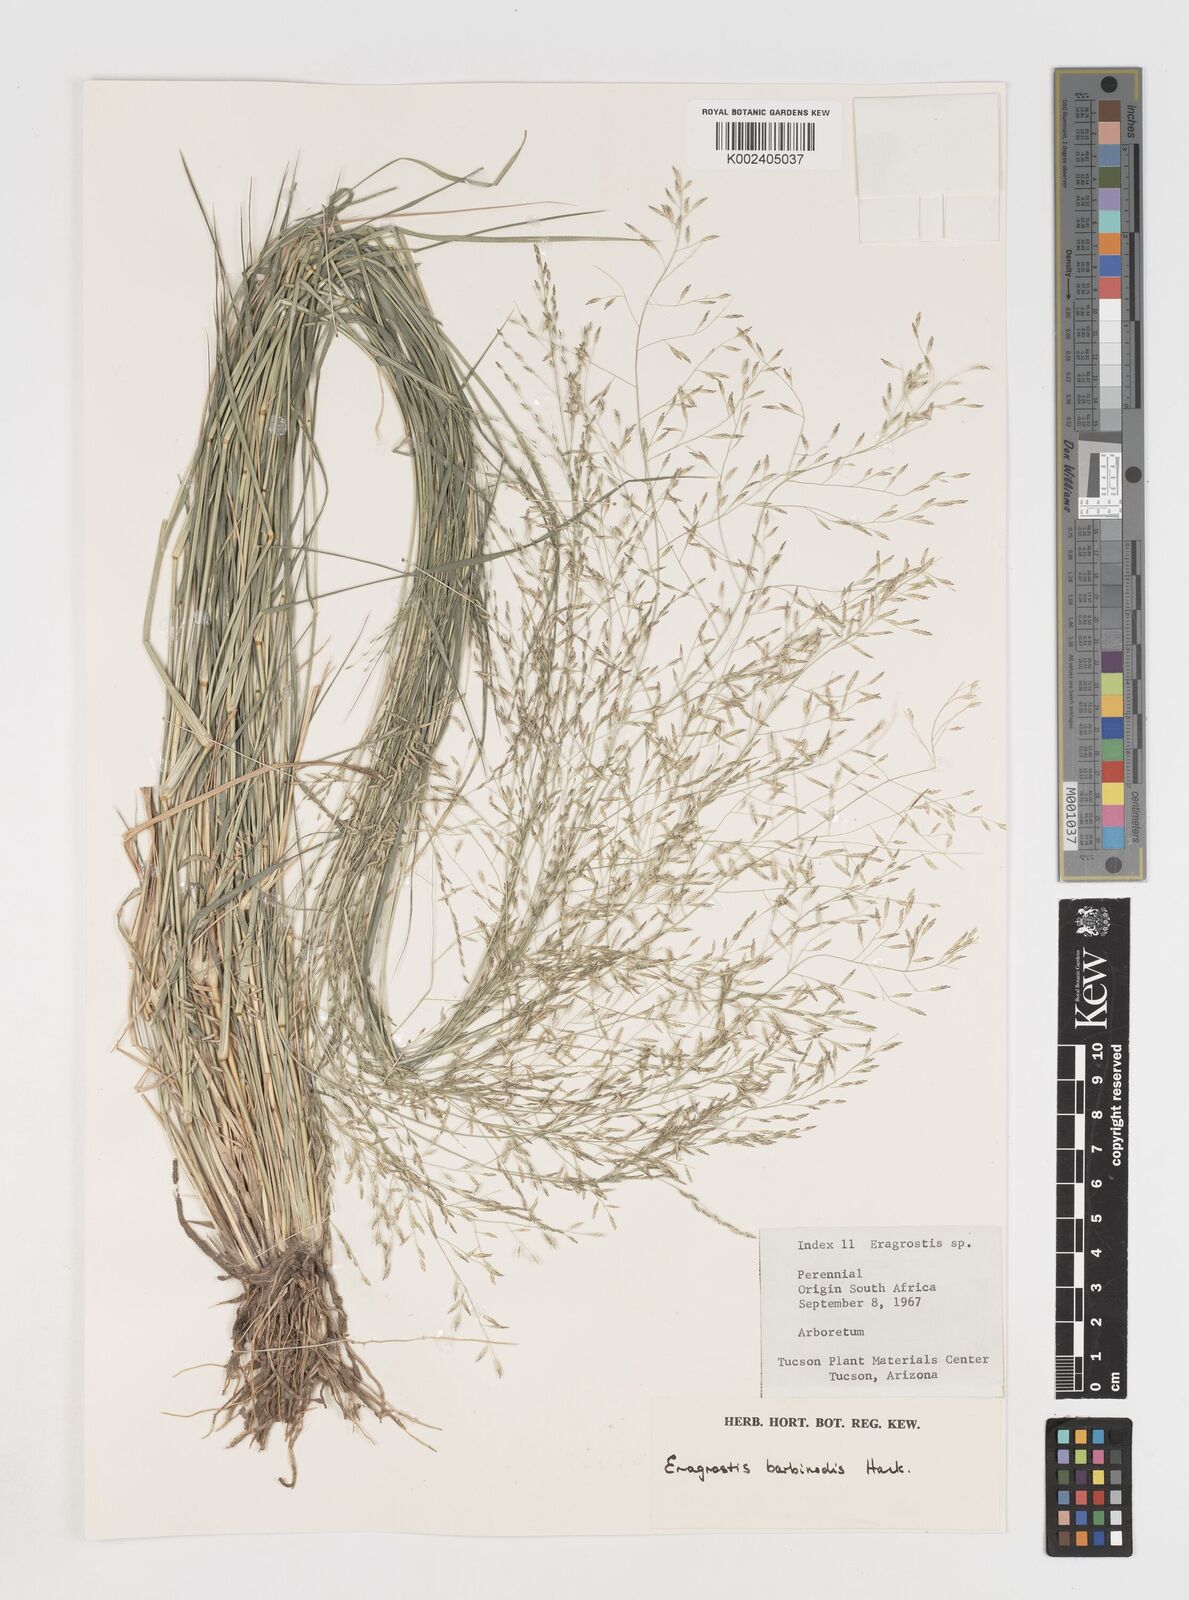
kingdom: Plantae
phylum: Tracheophyta
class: Liliopsida
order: Poales
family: Poaceae
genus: Eragrostis
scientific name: Eragrostis barbinodis
